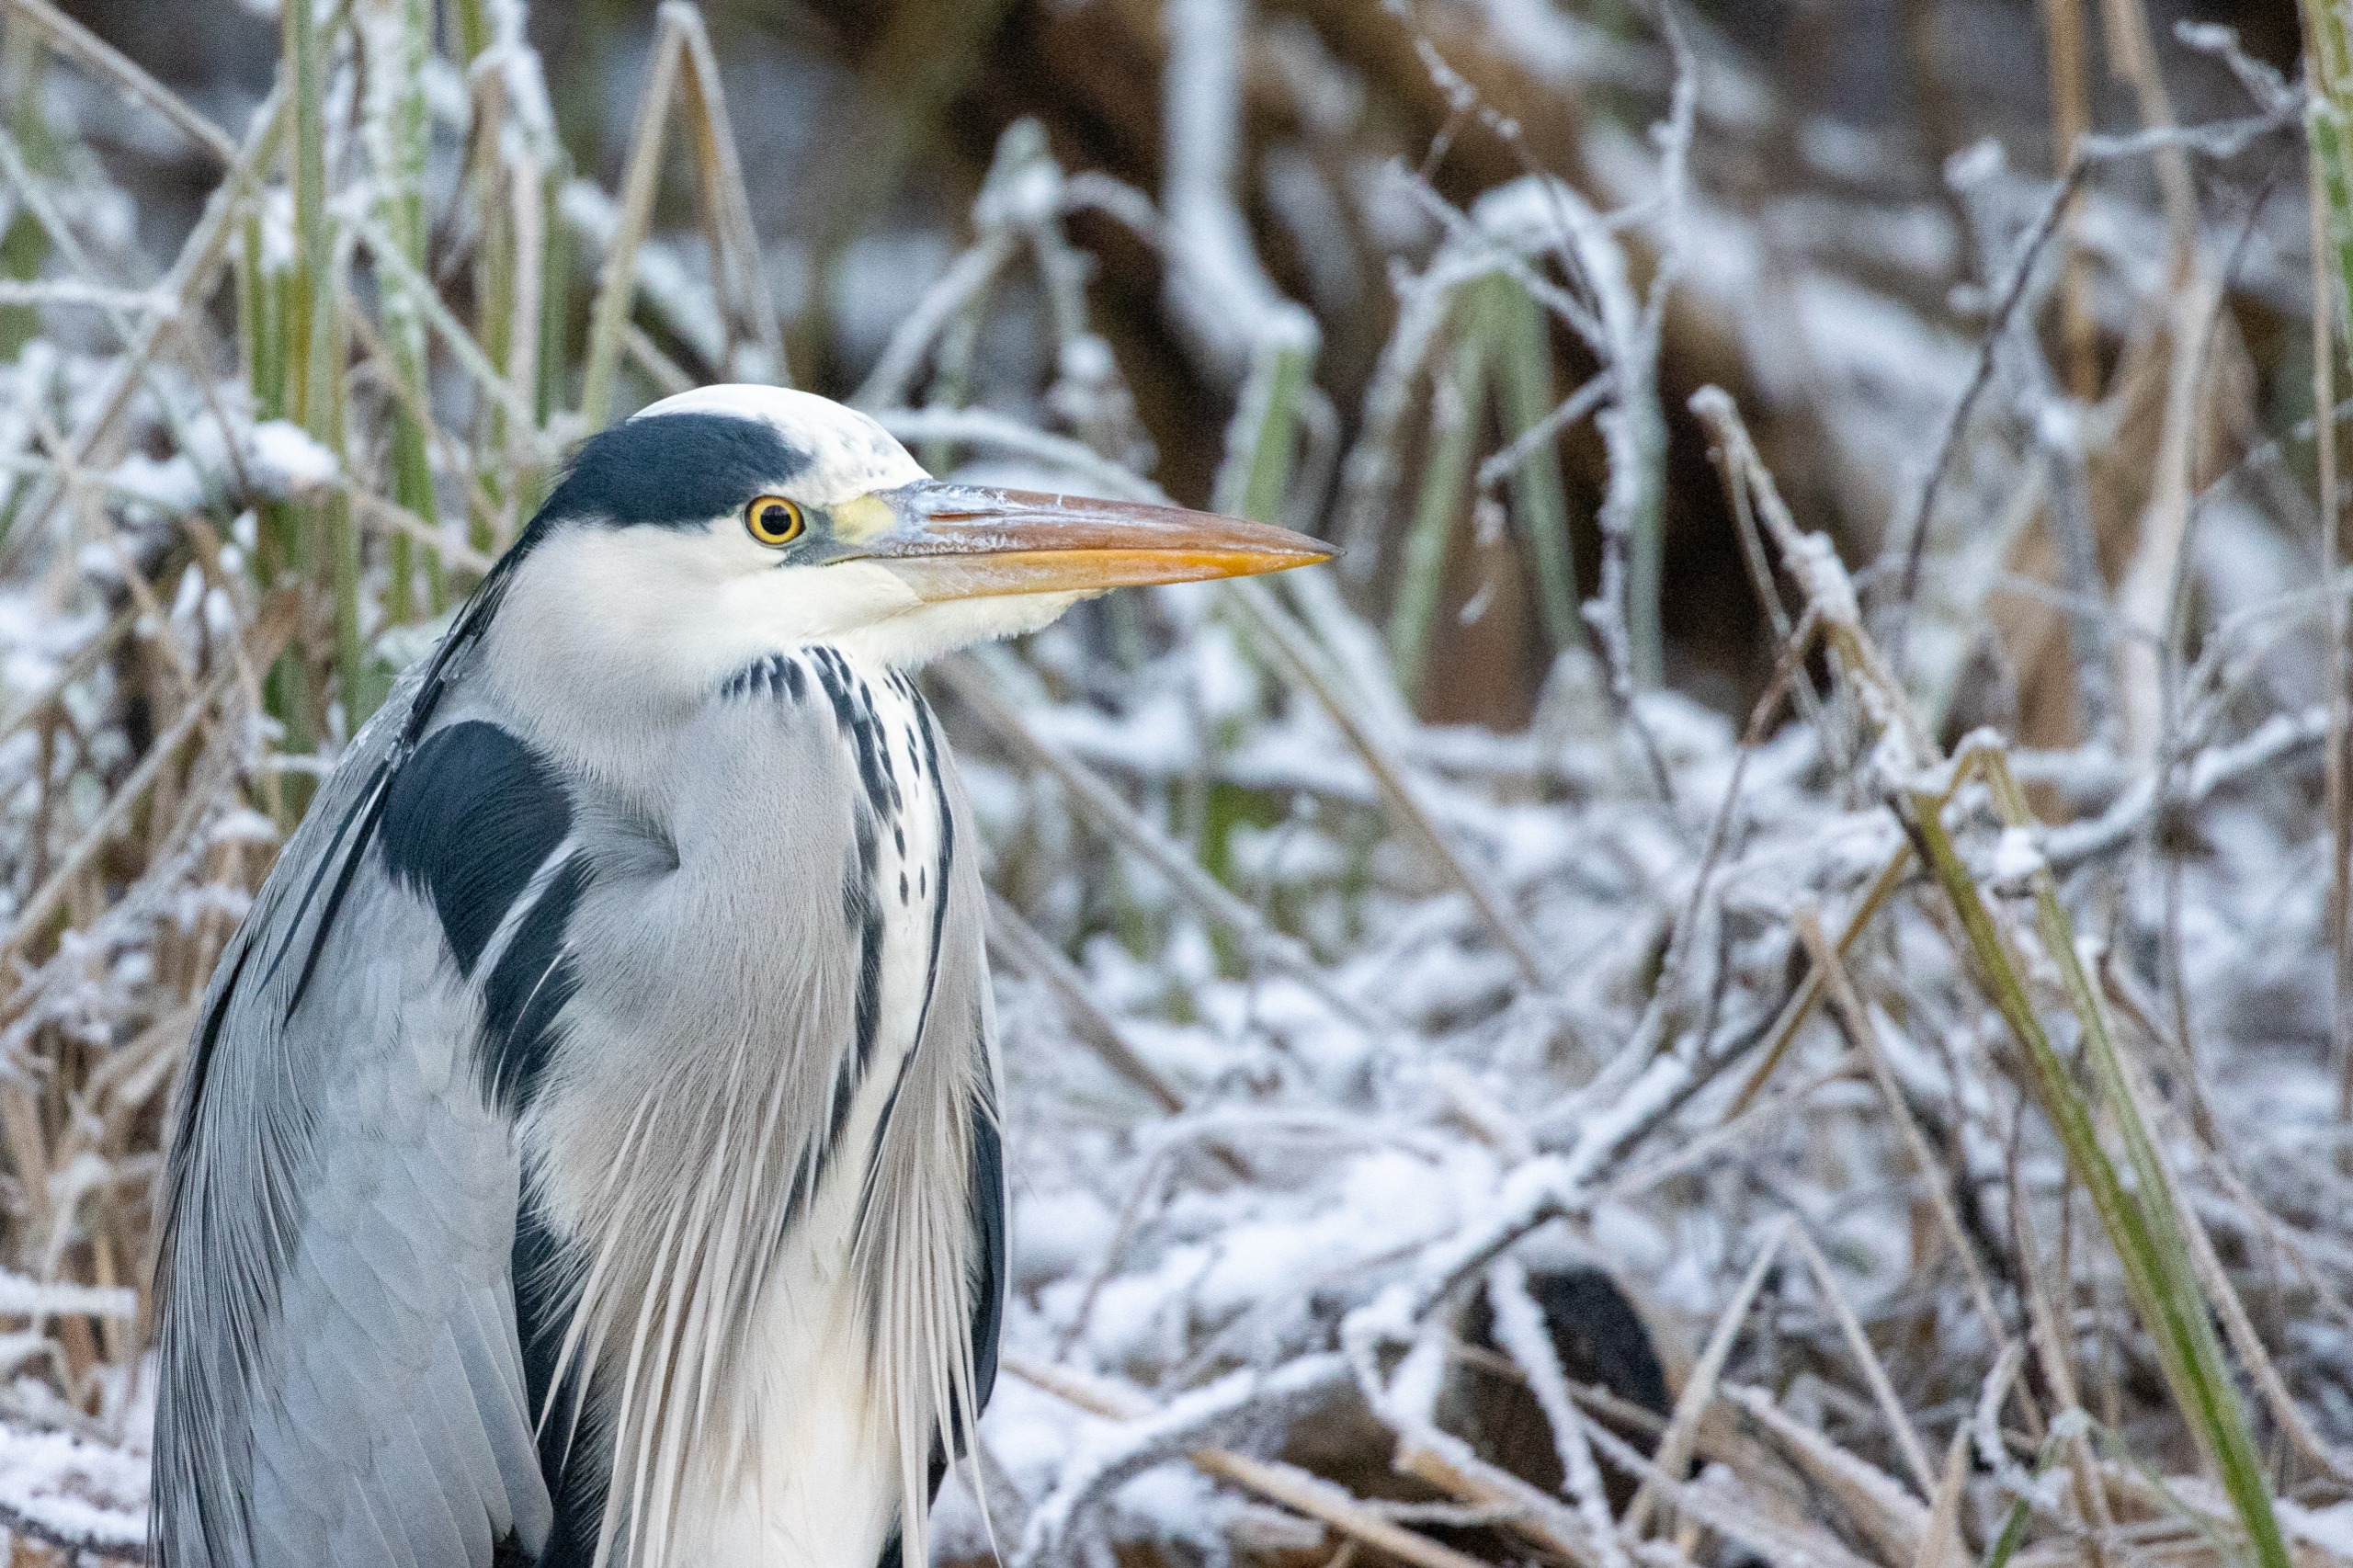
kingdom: Animalia
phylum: Chordata
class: Aves
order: Pelecaniformes
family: Ardeidae
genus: Ardea
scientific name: Ardea cinerea
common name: Fiskehejre
